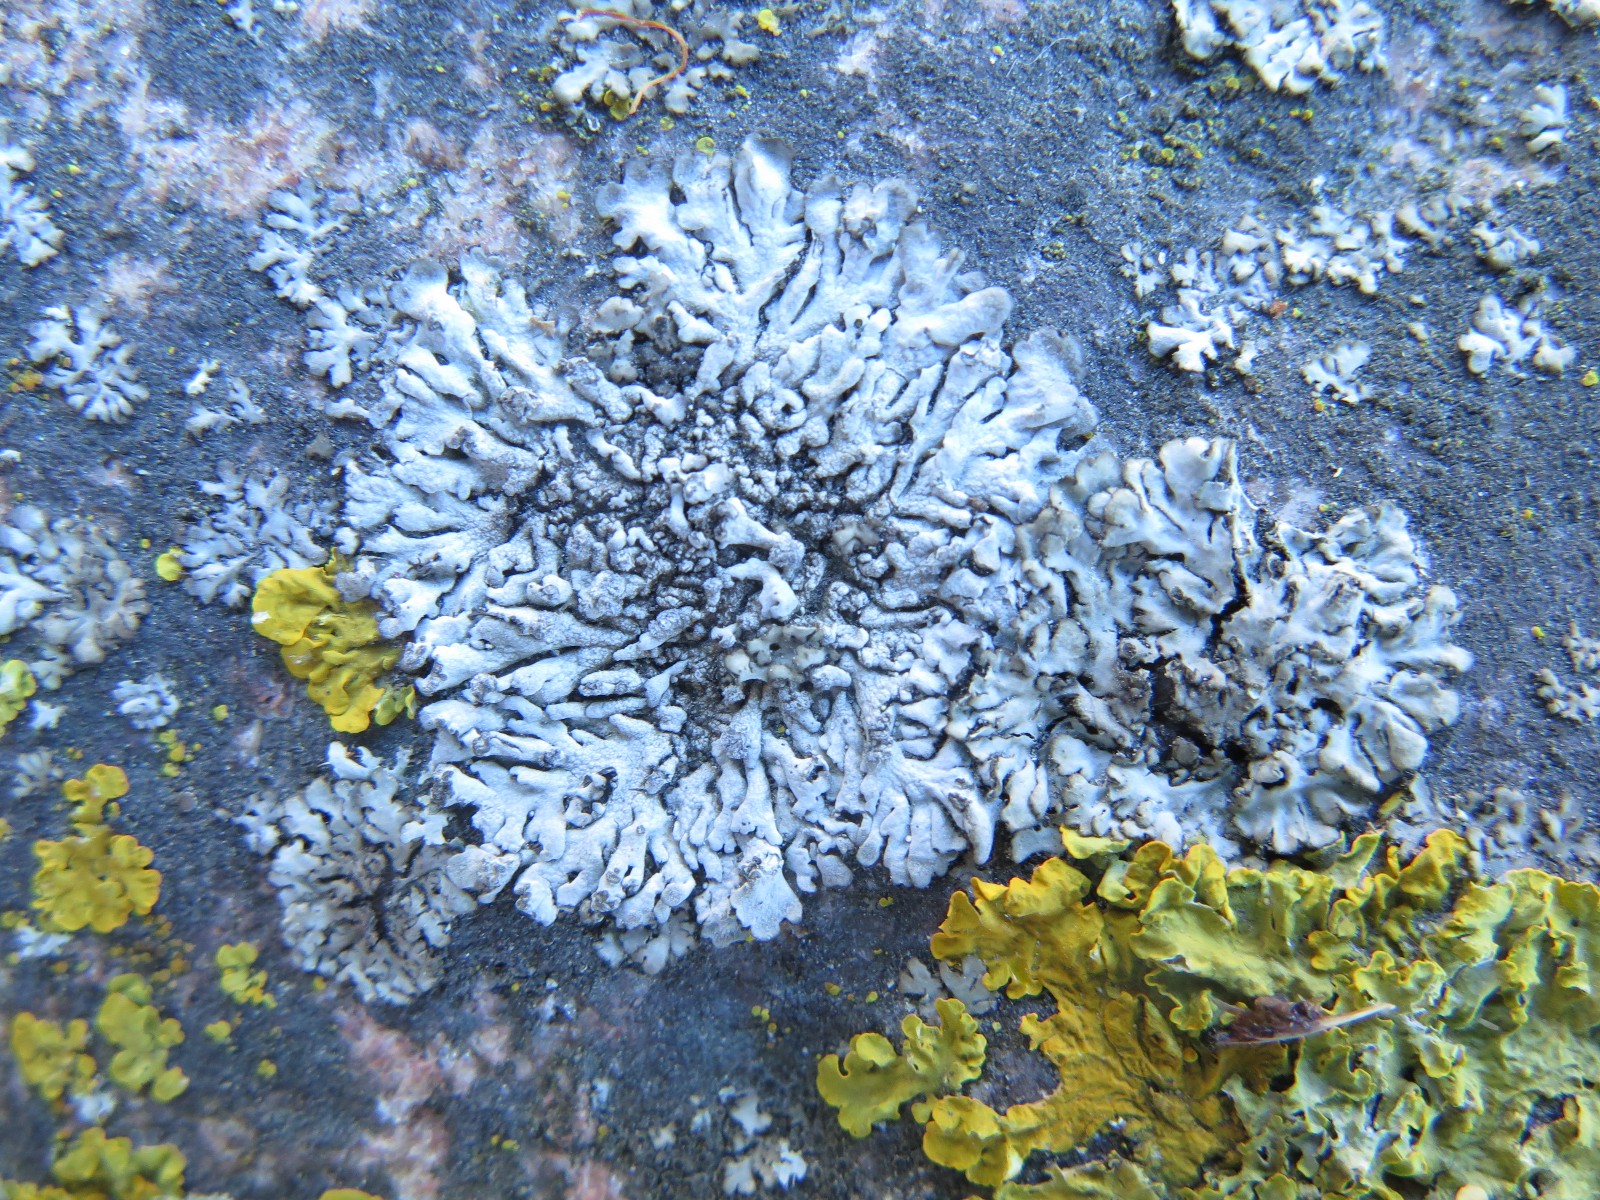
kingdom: Fungi
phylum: Ascomycota
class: Lecanoromycetes
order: Caliciales
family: Physciaceae
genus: Physcia
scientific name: Physcia caesia
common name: blågrå rosetlav
